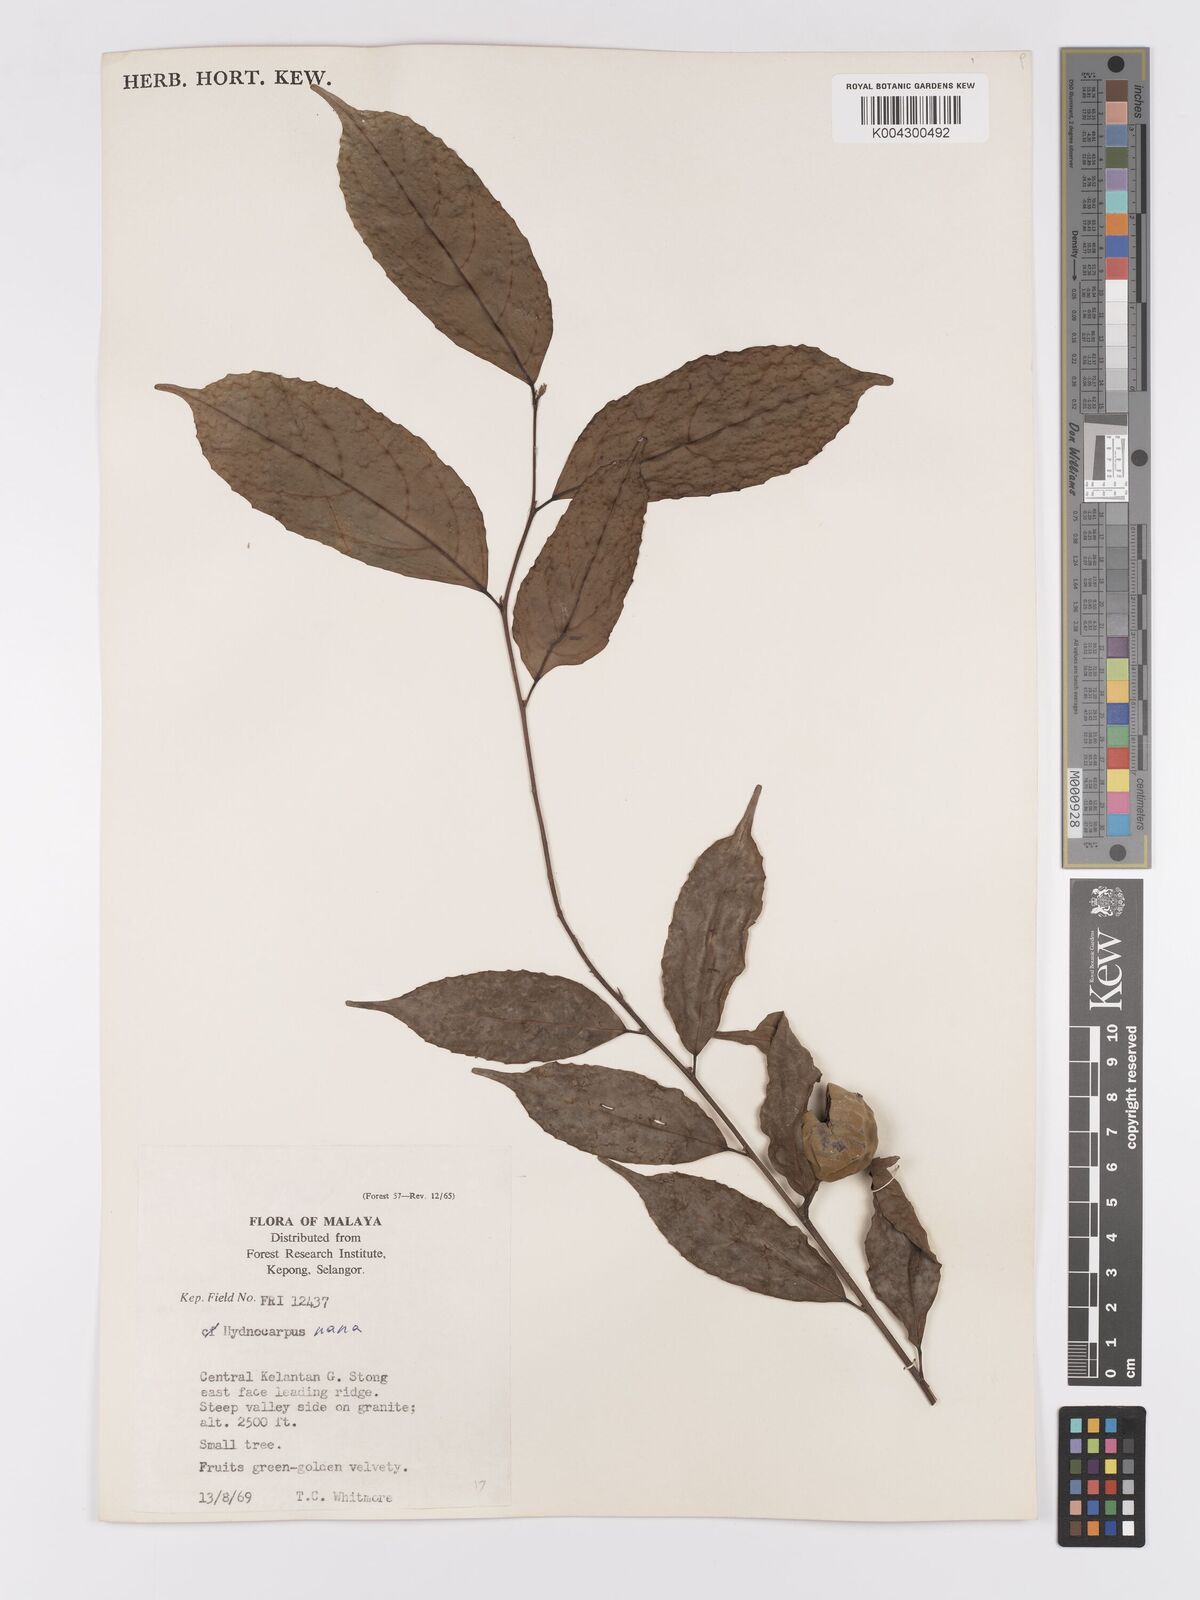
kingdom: Plantae
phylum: Tracheophyta
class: Magnoliopsida
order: Malpighiales
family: Achariaceae
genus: Hydnocarpus
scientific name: Hydnocarpus nanus
